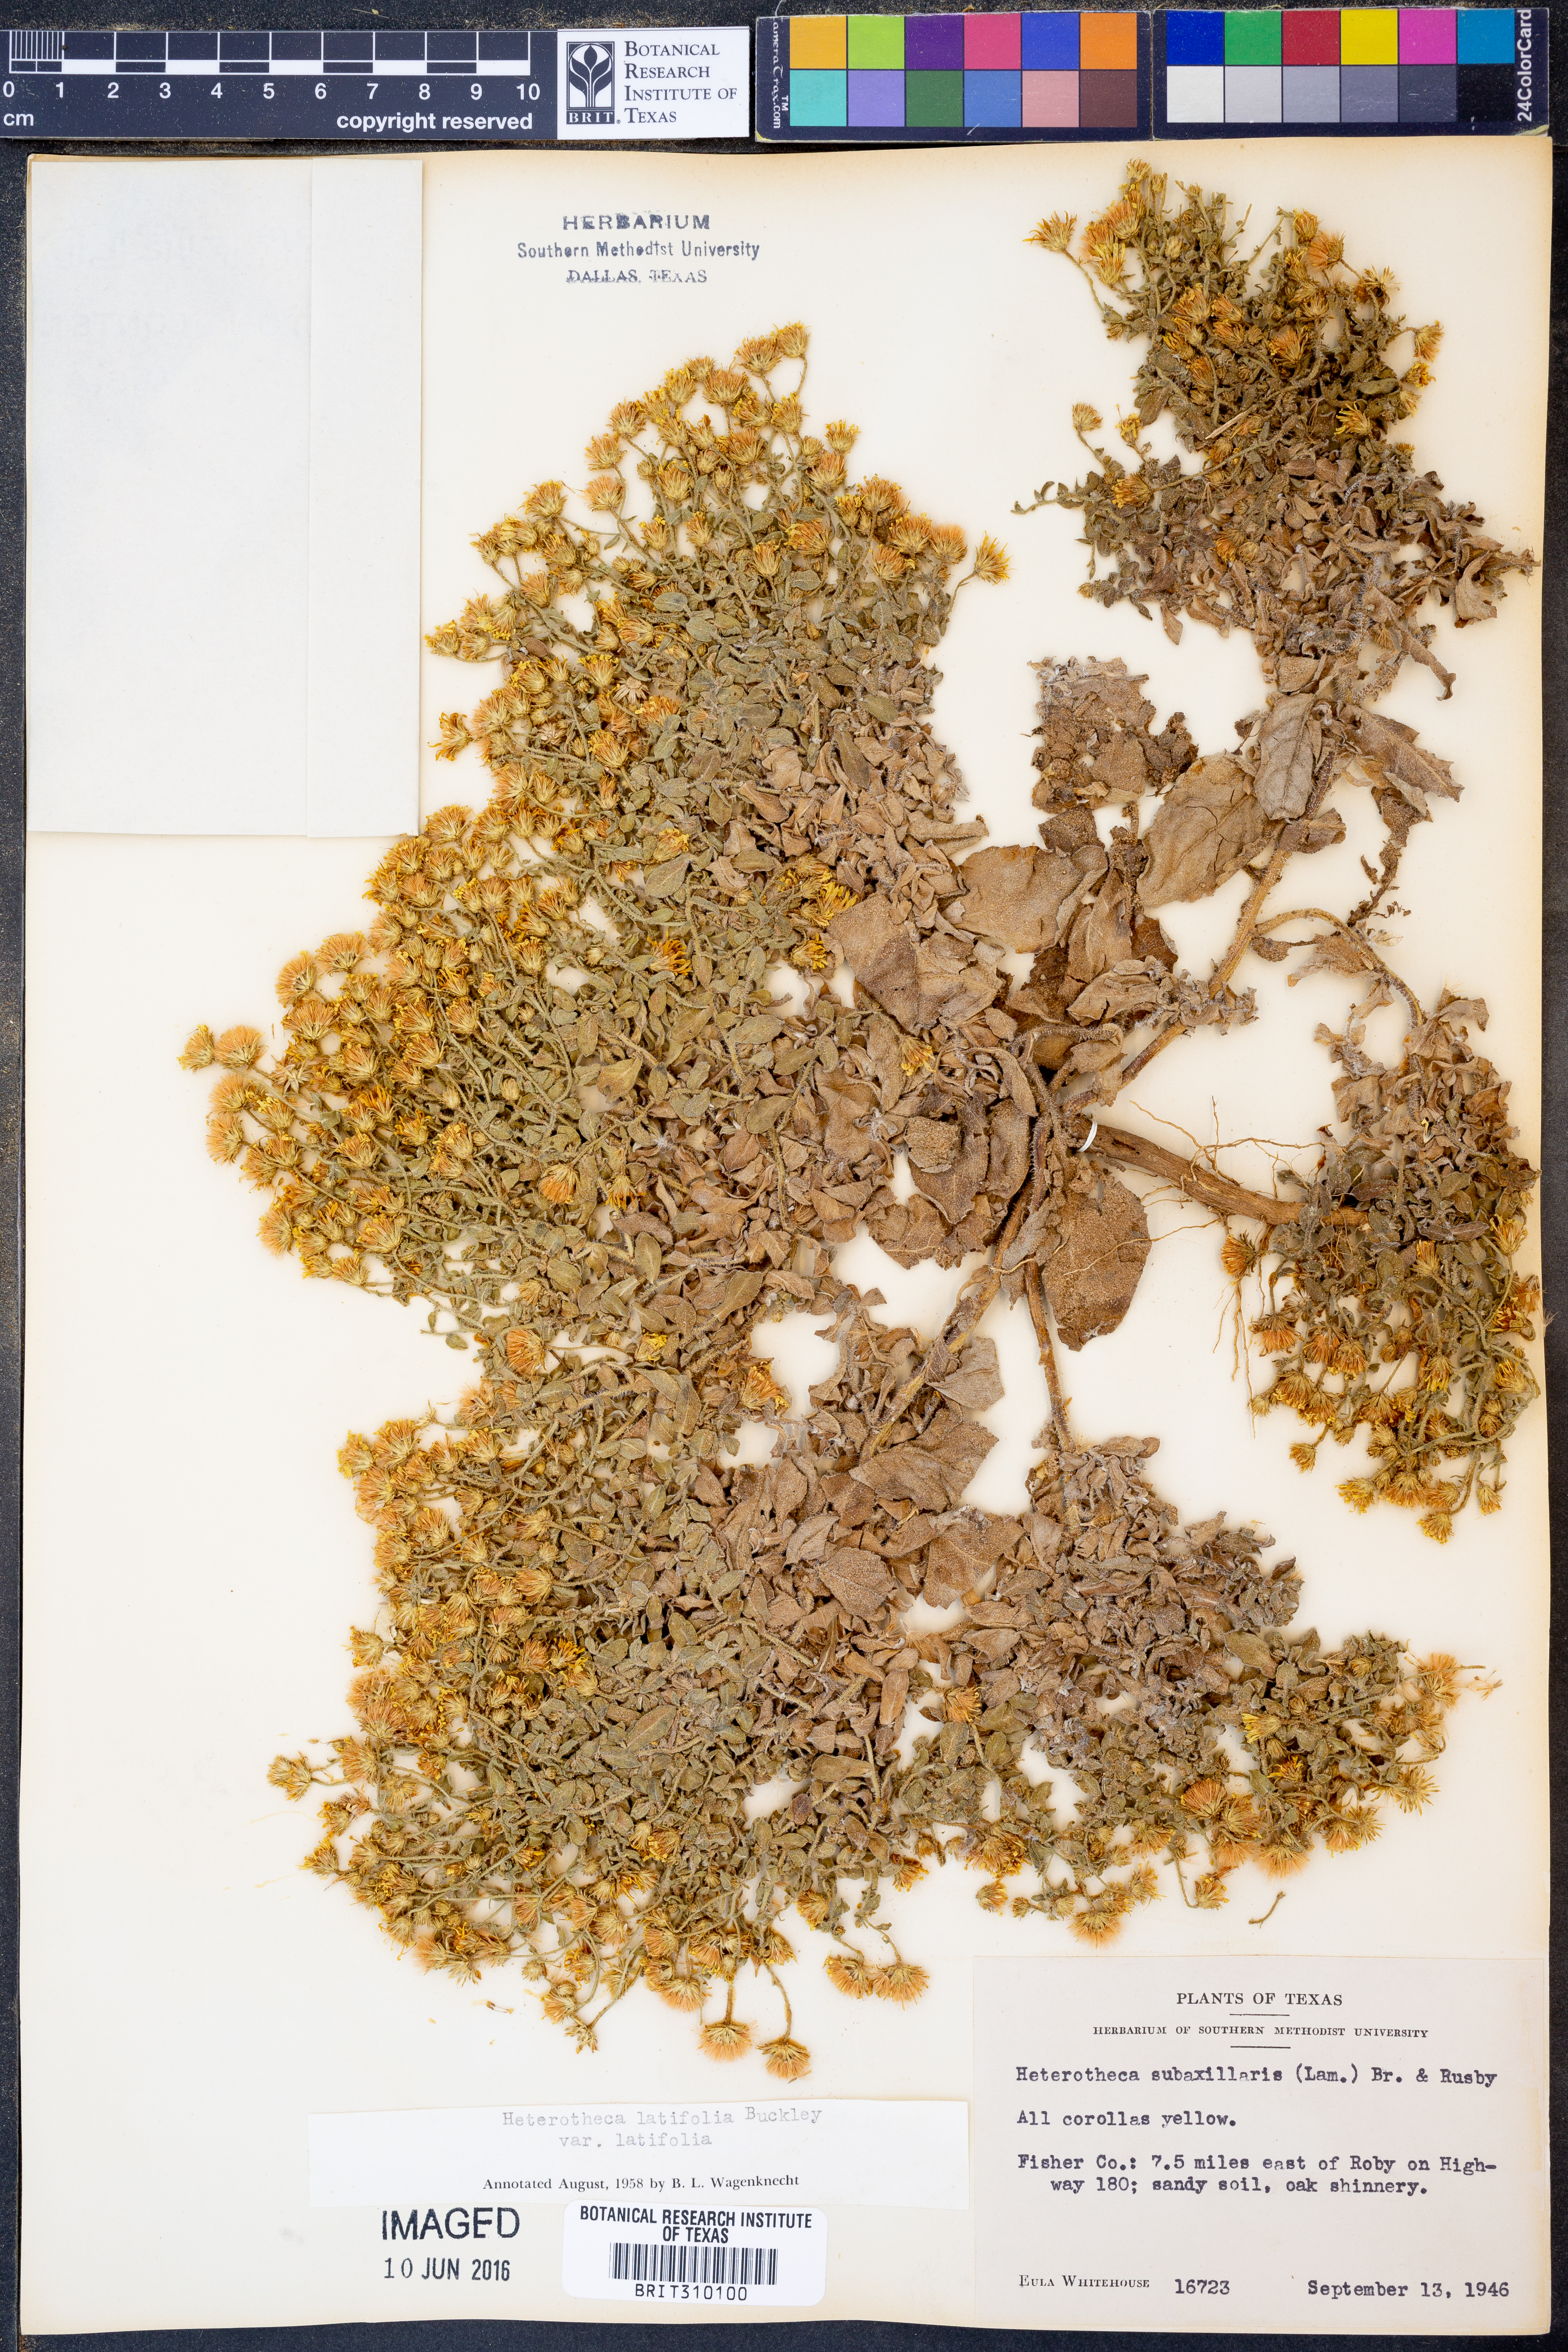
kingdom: Plantae
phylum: Tracheophyta
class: Magnoliopsida
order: Asterales
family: Asteraceae
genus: Heterotheca
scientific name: Heterotheca subaxillaris
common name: Camphorweed
